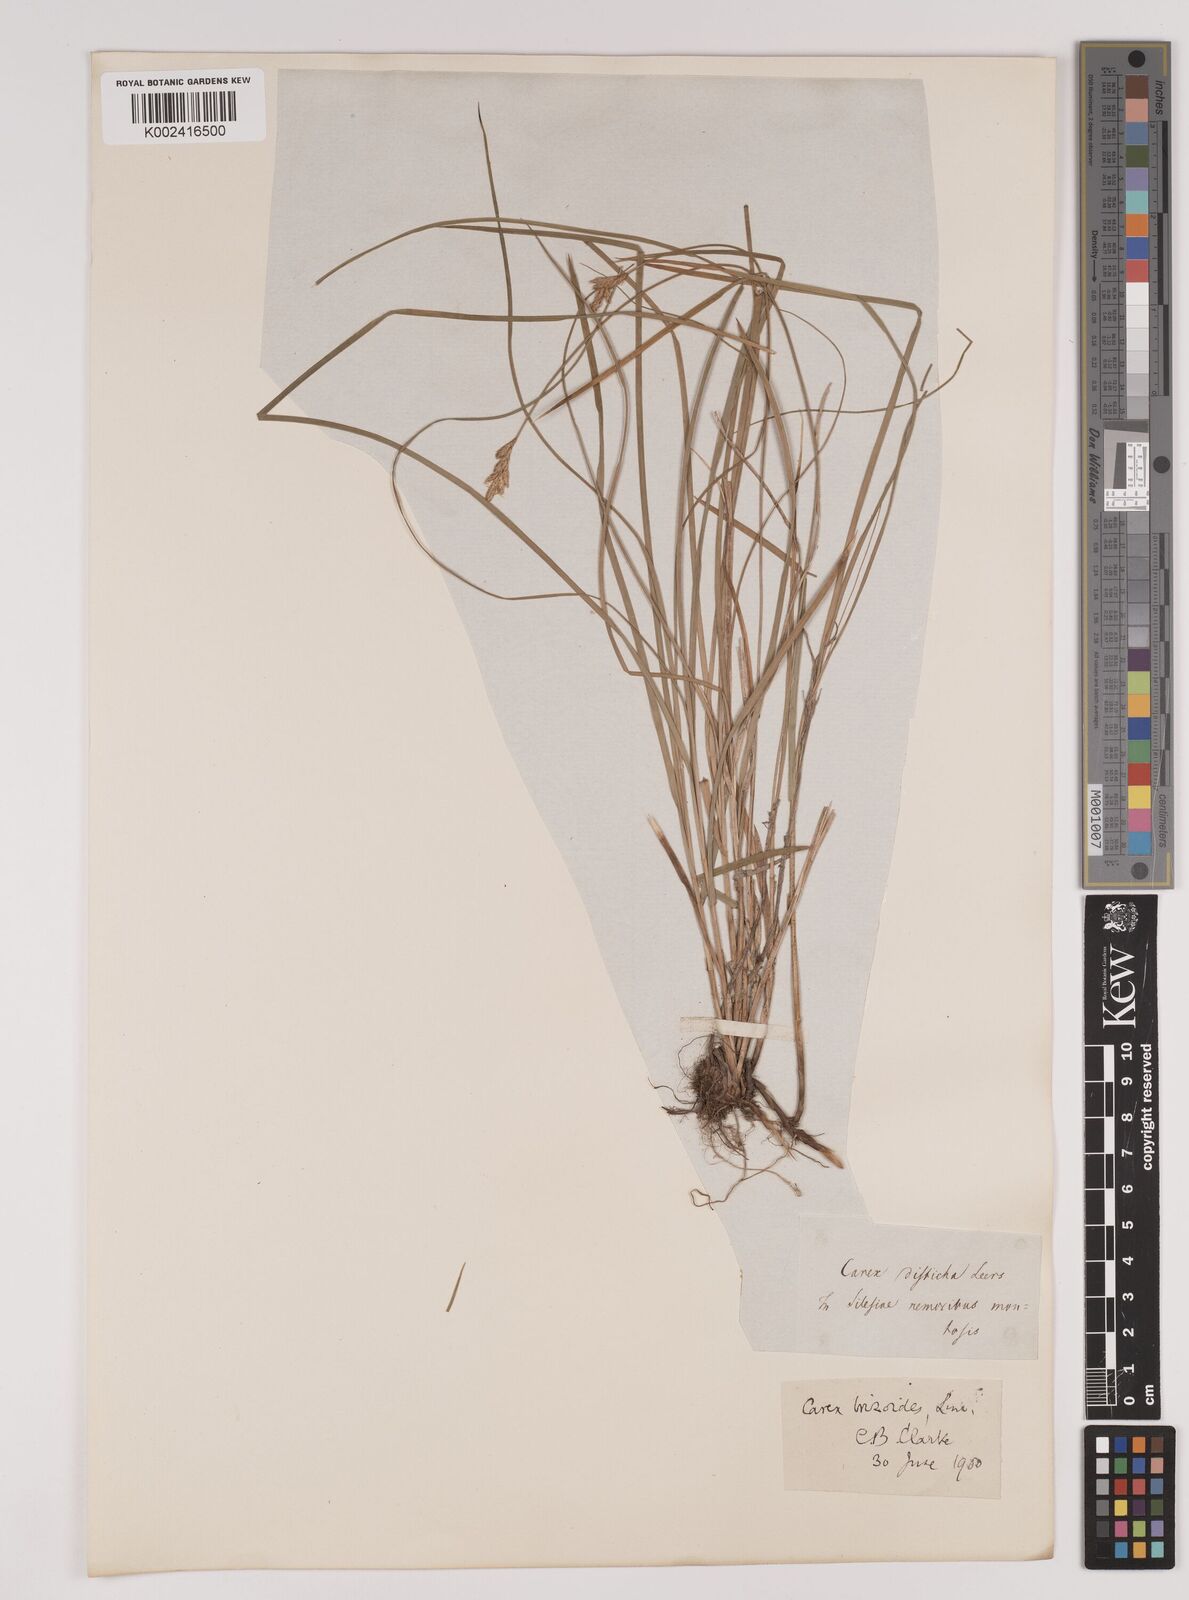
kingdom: Plantae
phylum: Tracheophyta
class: Liliopsida
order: Poales
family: Cyperaceae
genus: Carex
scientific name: Carex brizoides
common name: Quaking-grass sedge
